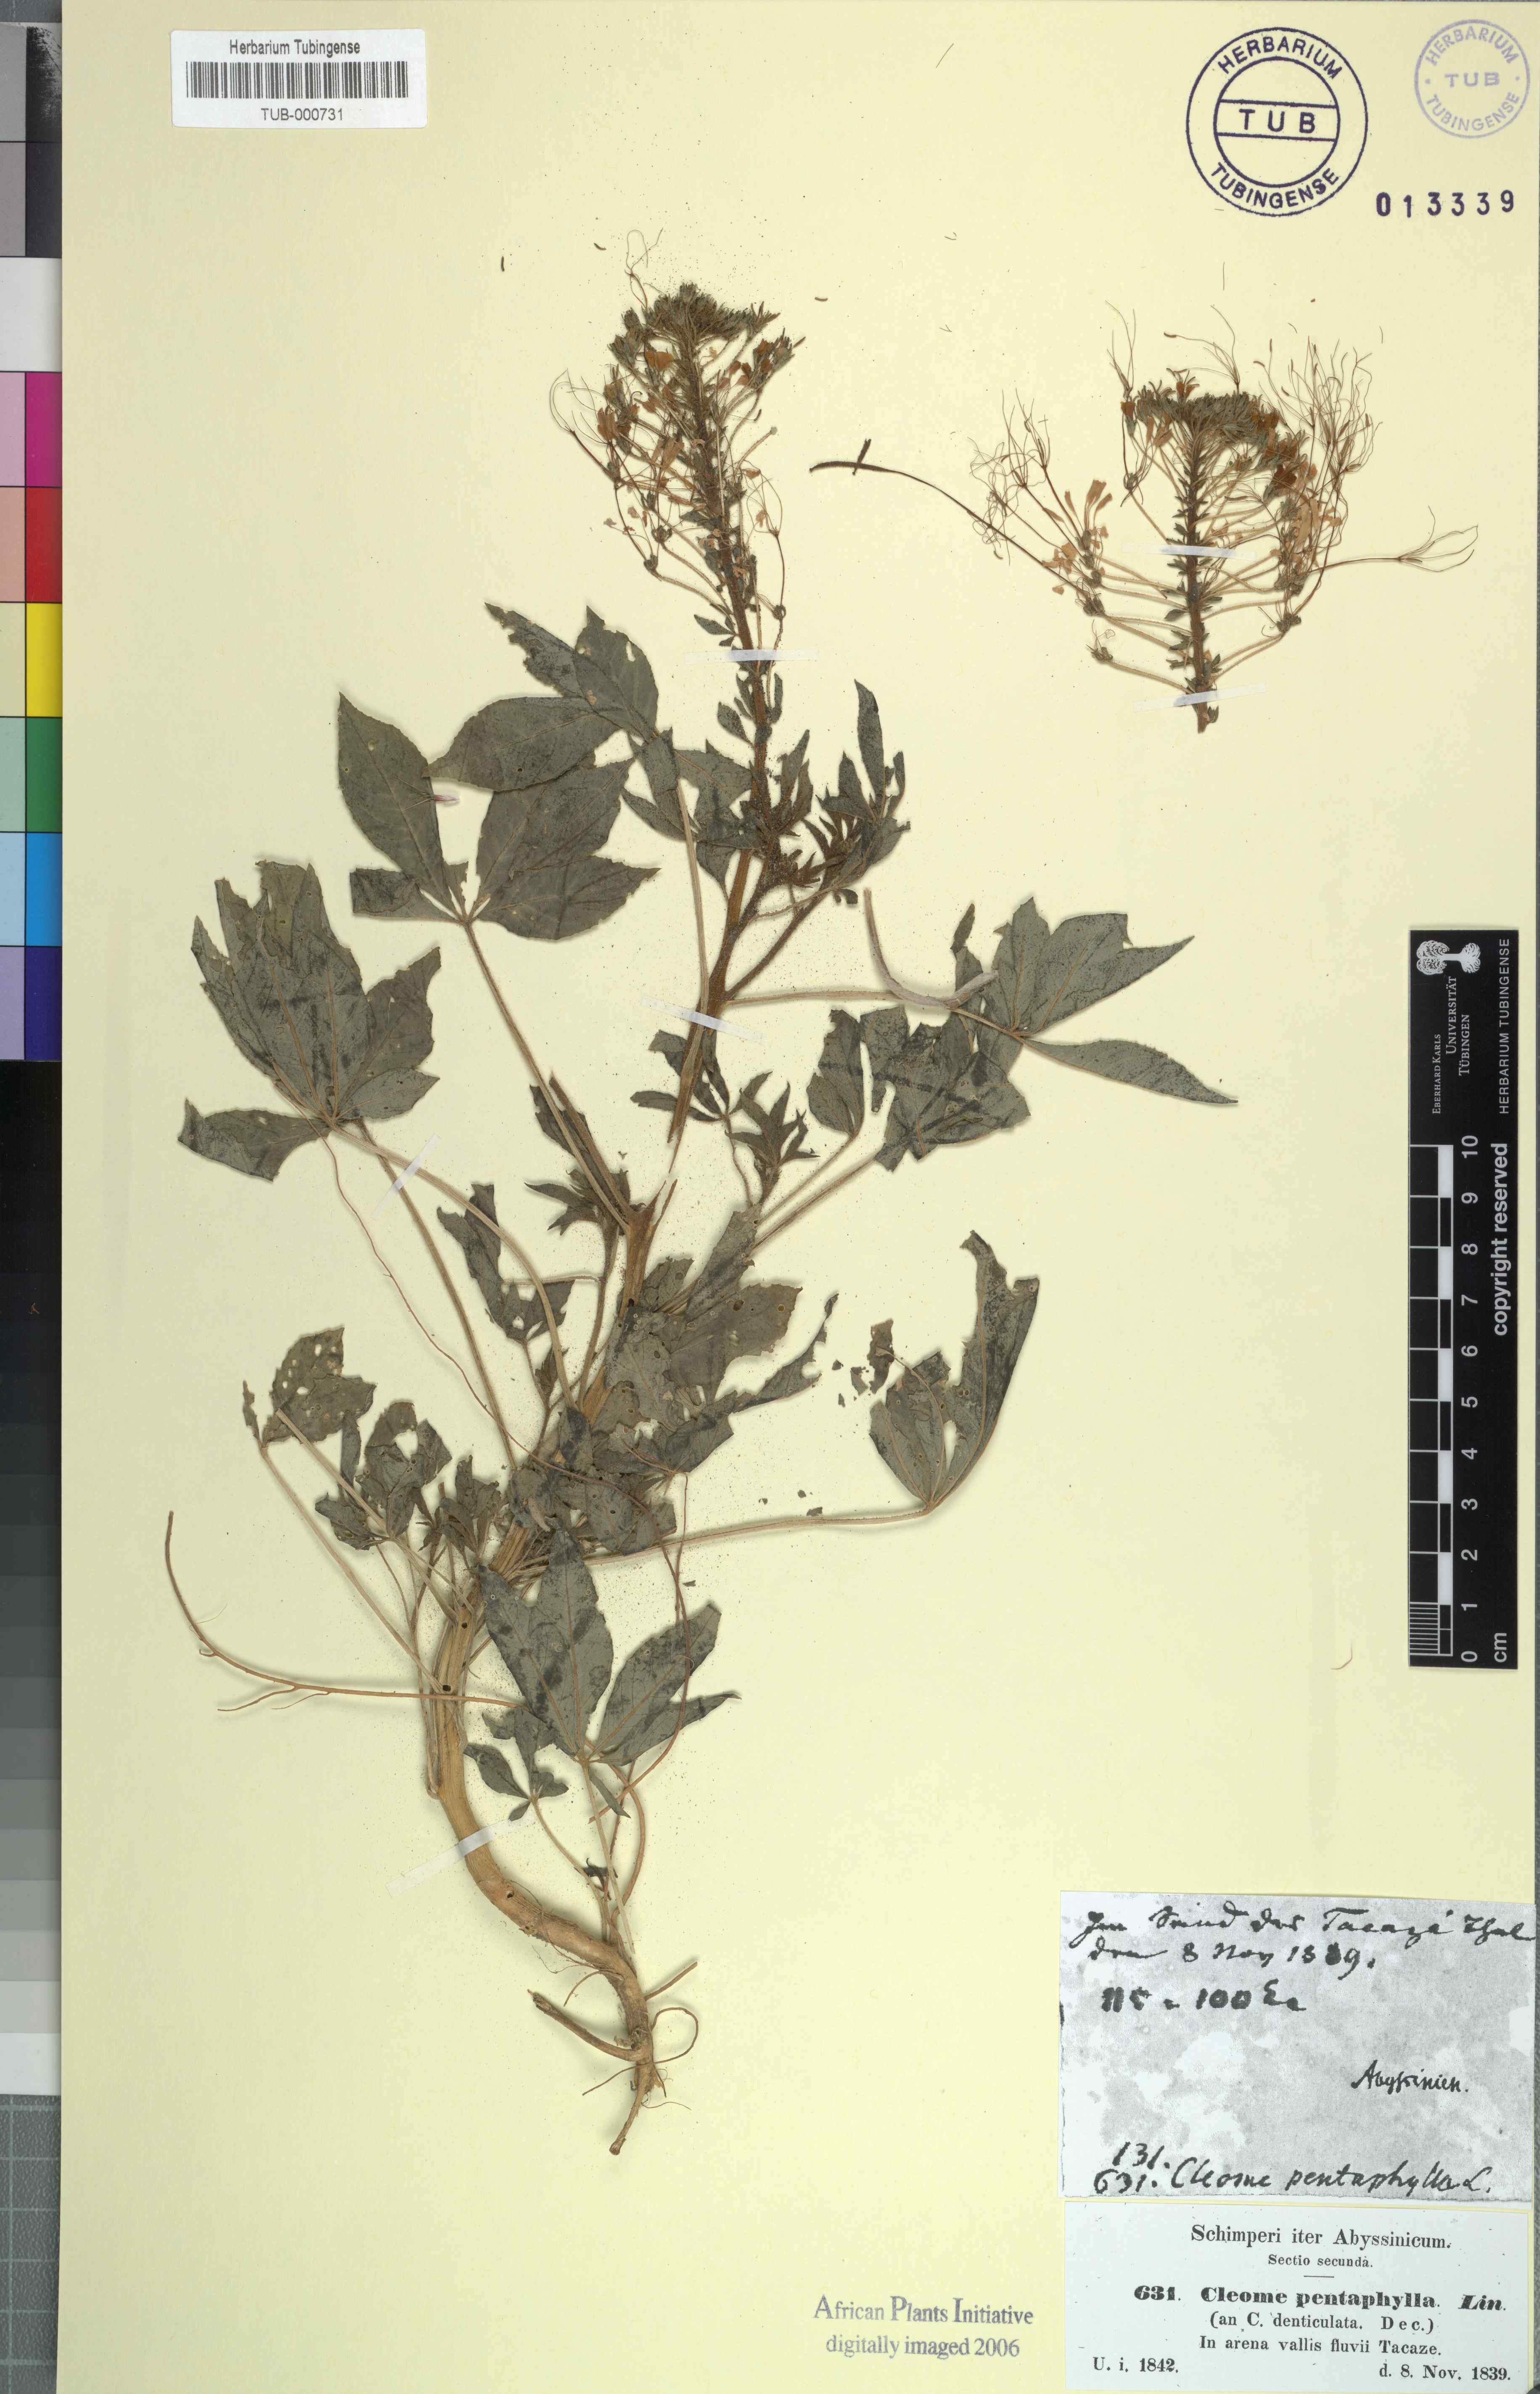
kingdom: Plantae
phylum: Tracheophyta
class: Magnoliopsida
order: Brassicales
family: Cleomaceae
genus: Gynandropsis
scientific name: Gynandropsis gynandra
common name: Spiderwisp
